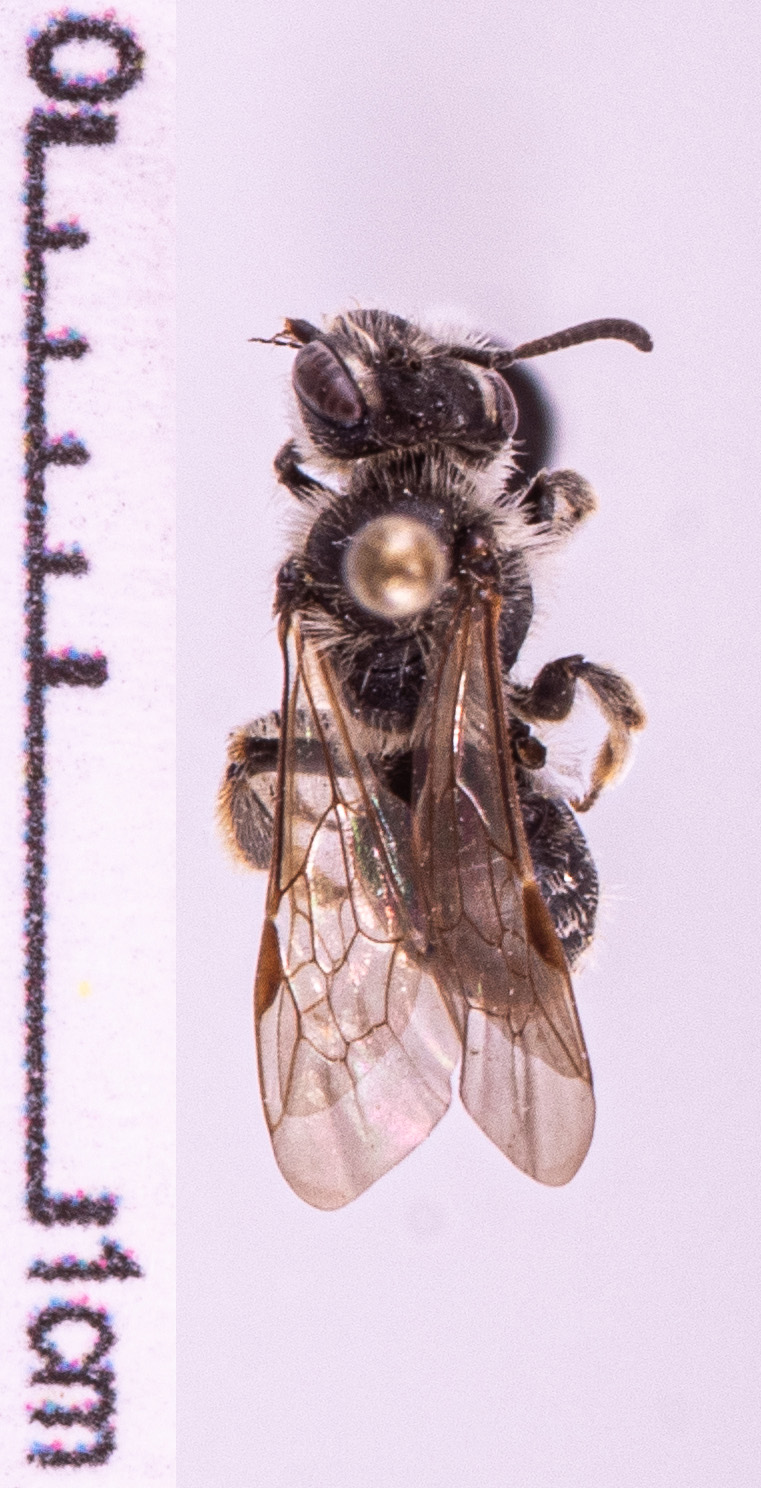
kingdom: Animalia
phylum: Arthropoda
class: Insecta
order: Hymenoptera
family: Andrenidae
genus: Andrena
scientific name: Andrena strohmella
